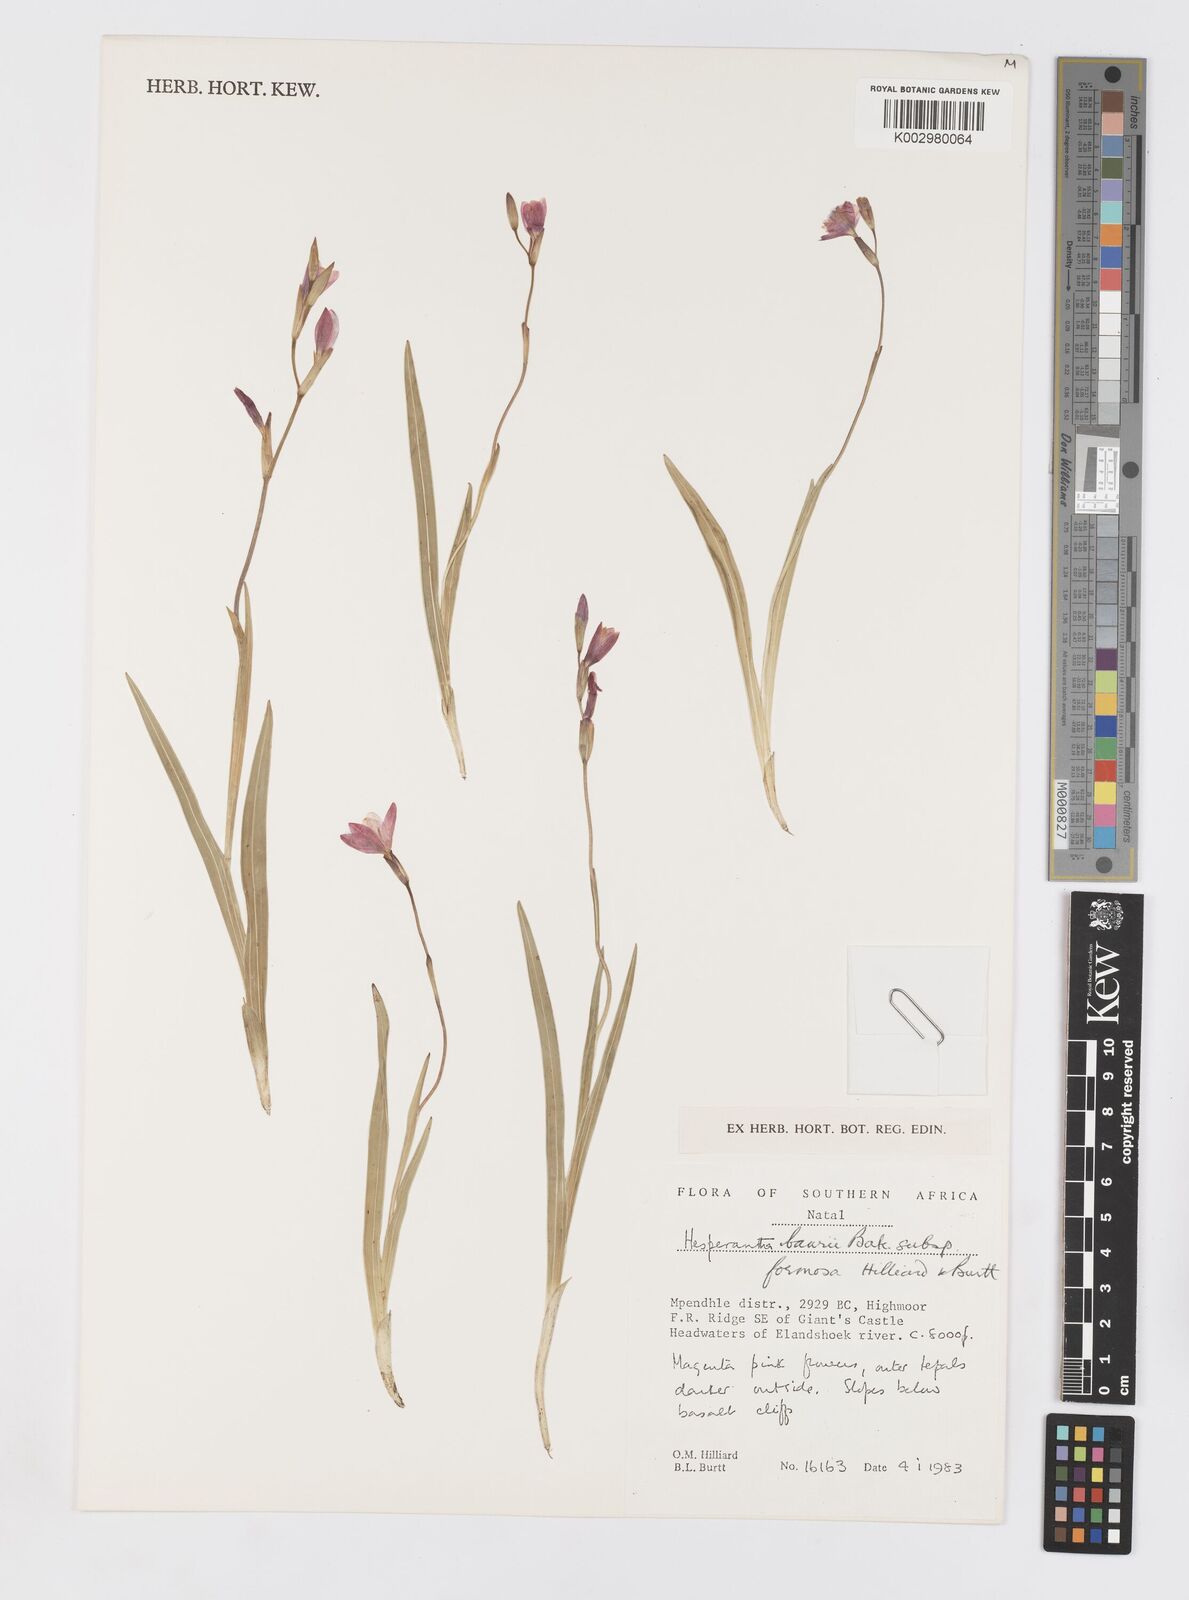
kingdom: Plantae
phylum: Tracheophyta
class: Liliopsida
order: Asparagales
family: Iridaceae
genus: Hesperantha
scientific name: Hesperantha baurii
